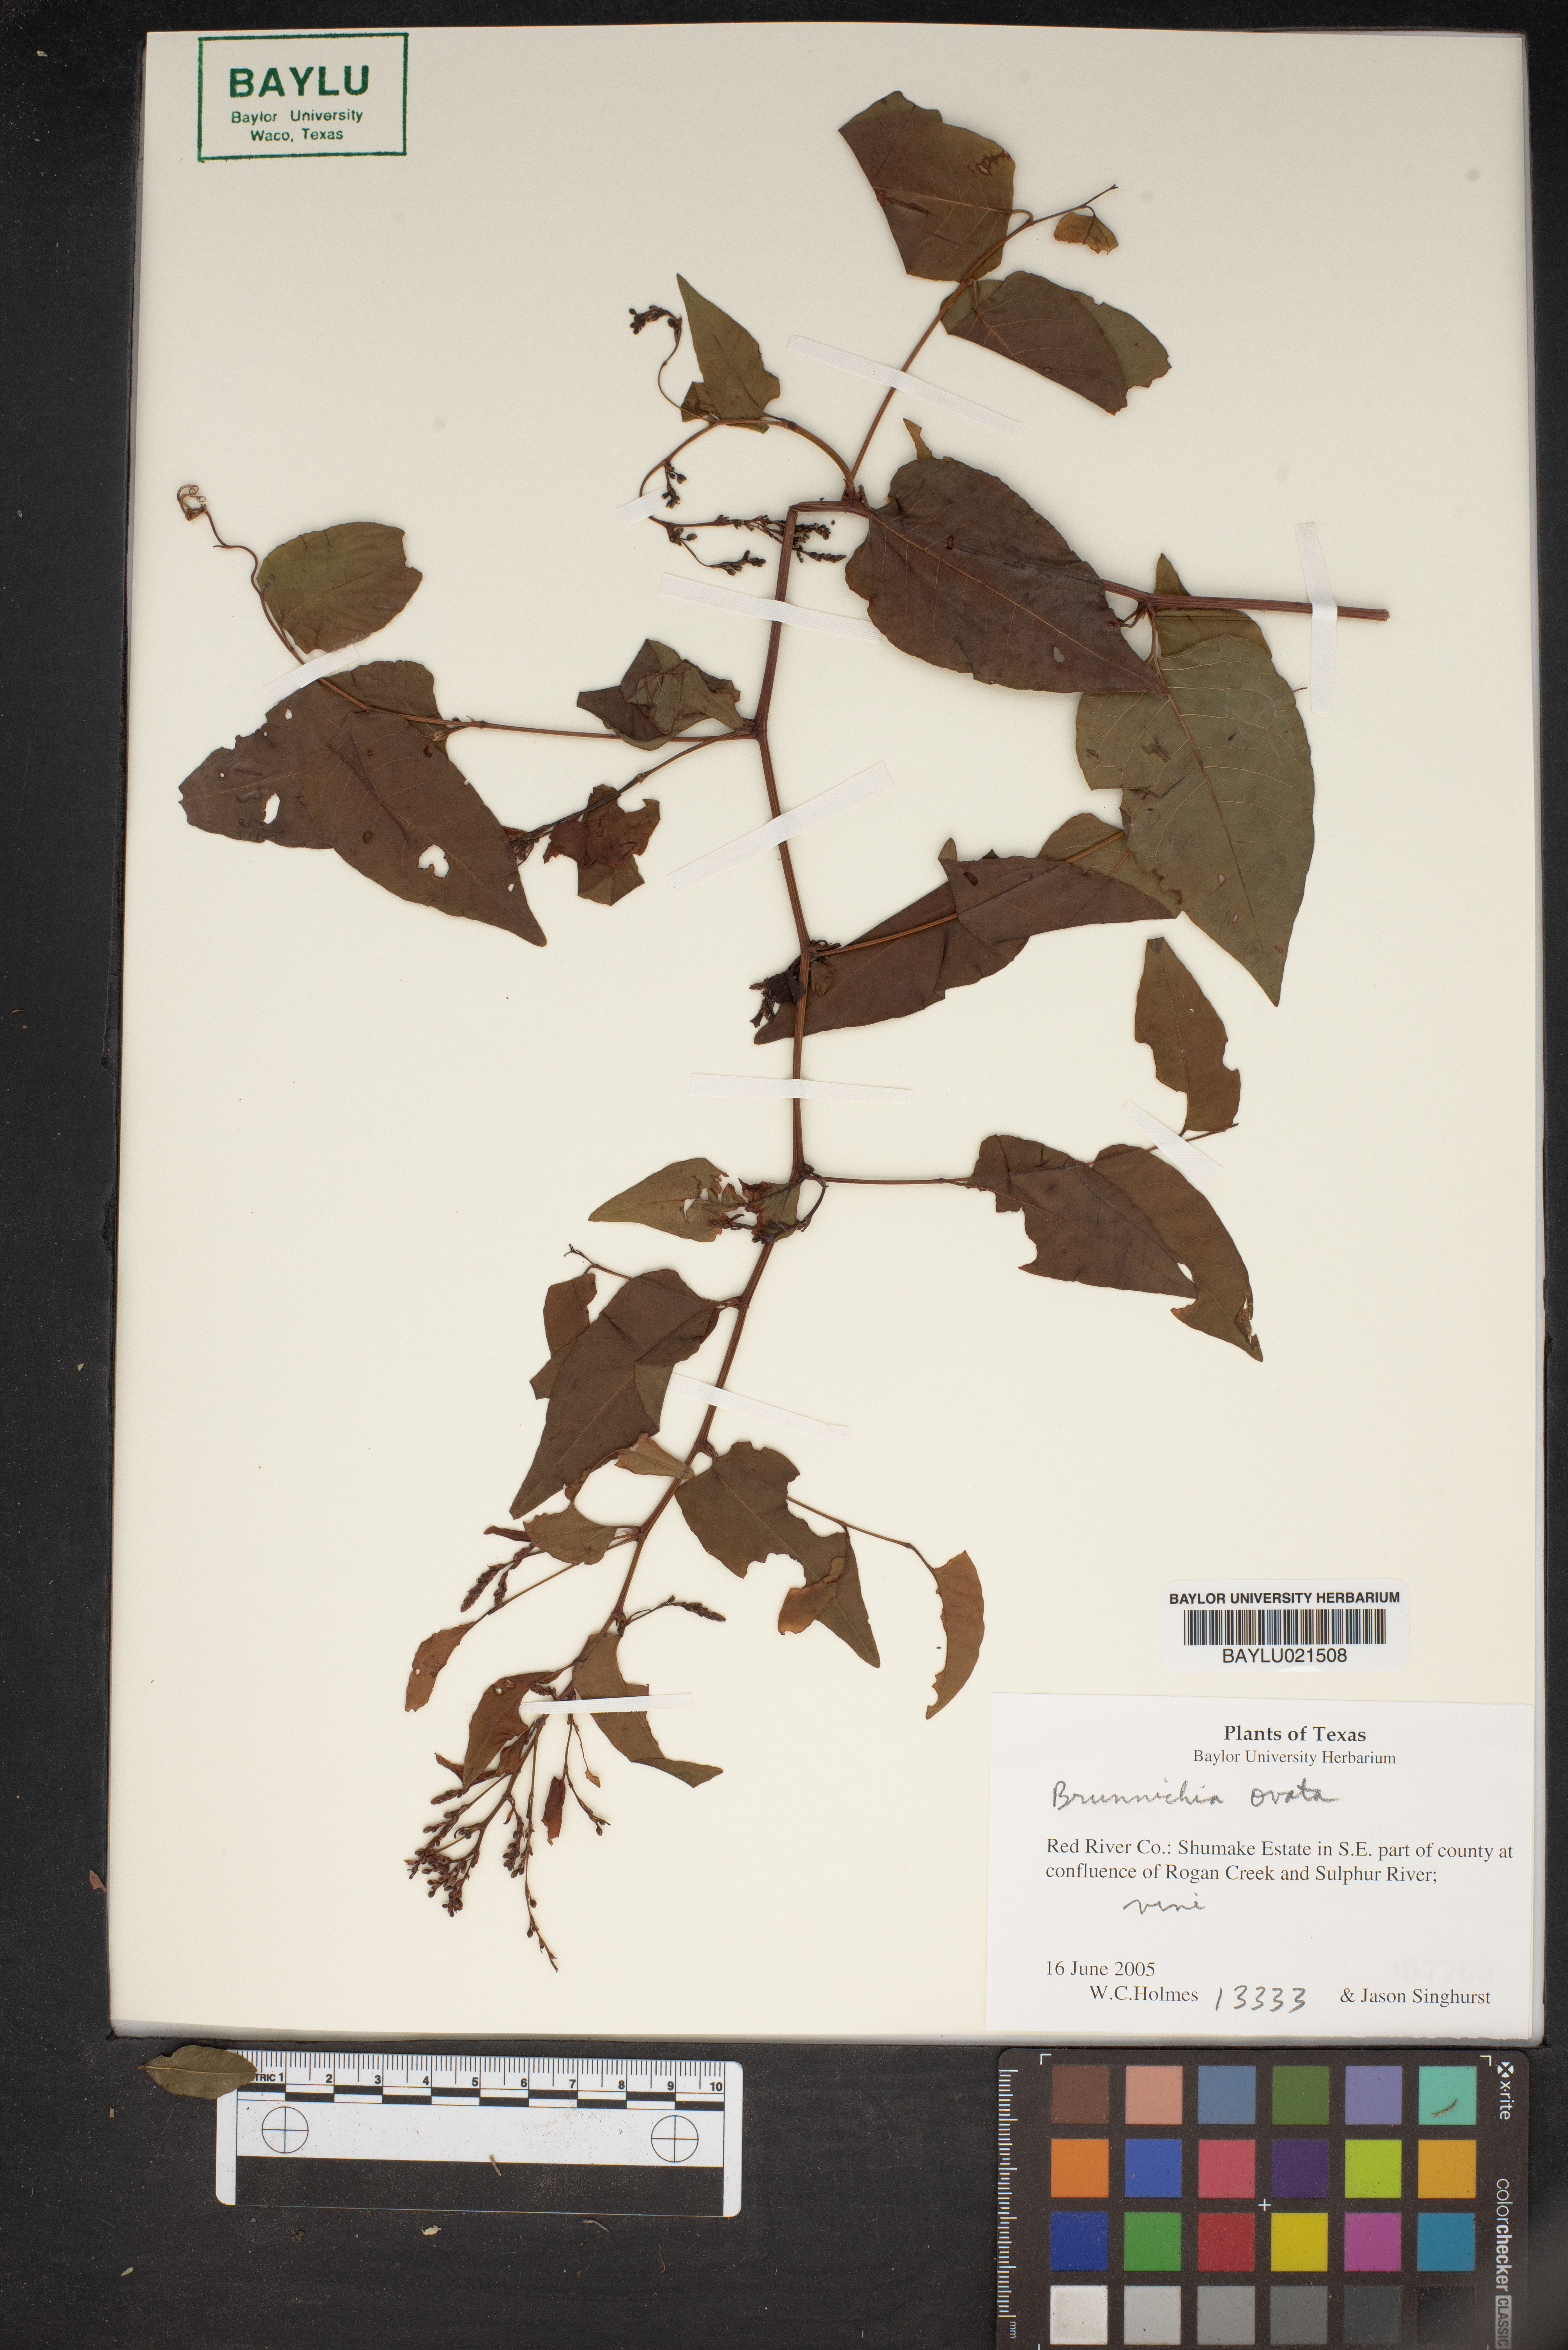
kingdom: Plantae
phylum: Tracheophyta
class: Magnoliopsida
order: Caryophyllales
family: Polygonaceae
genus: Brunnichia
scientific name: Brunnichia ovata
